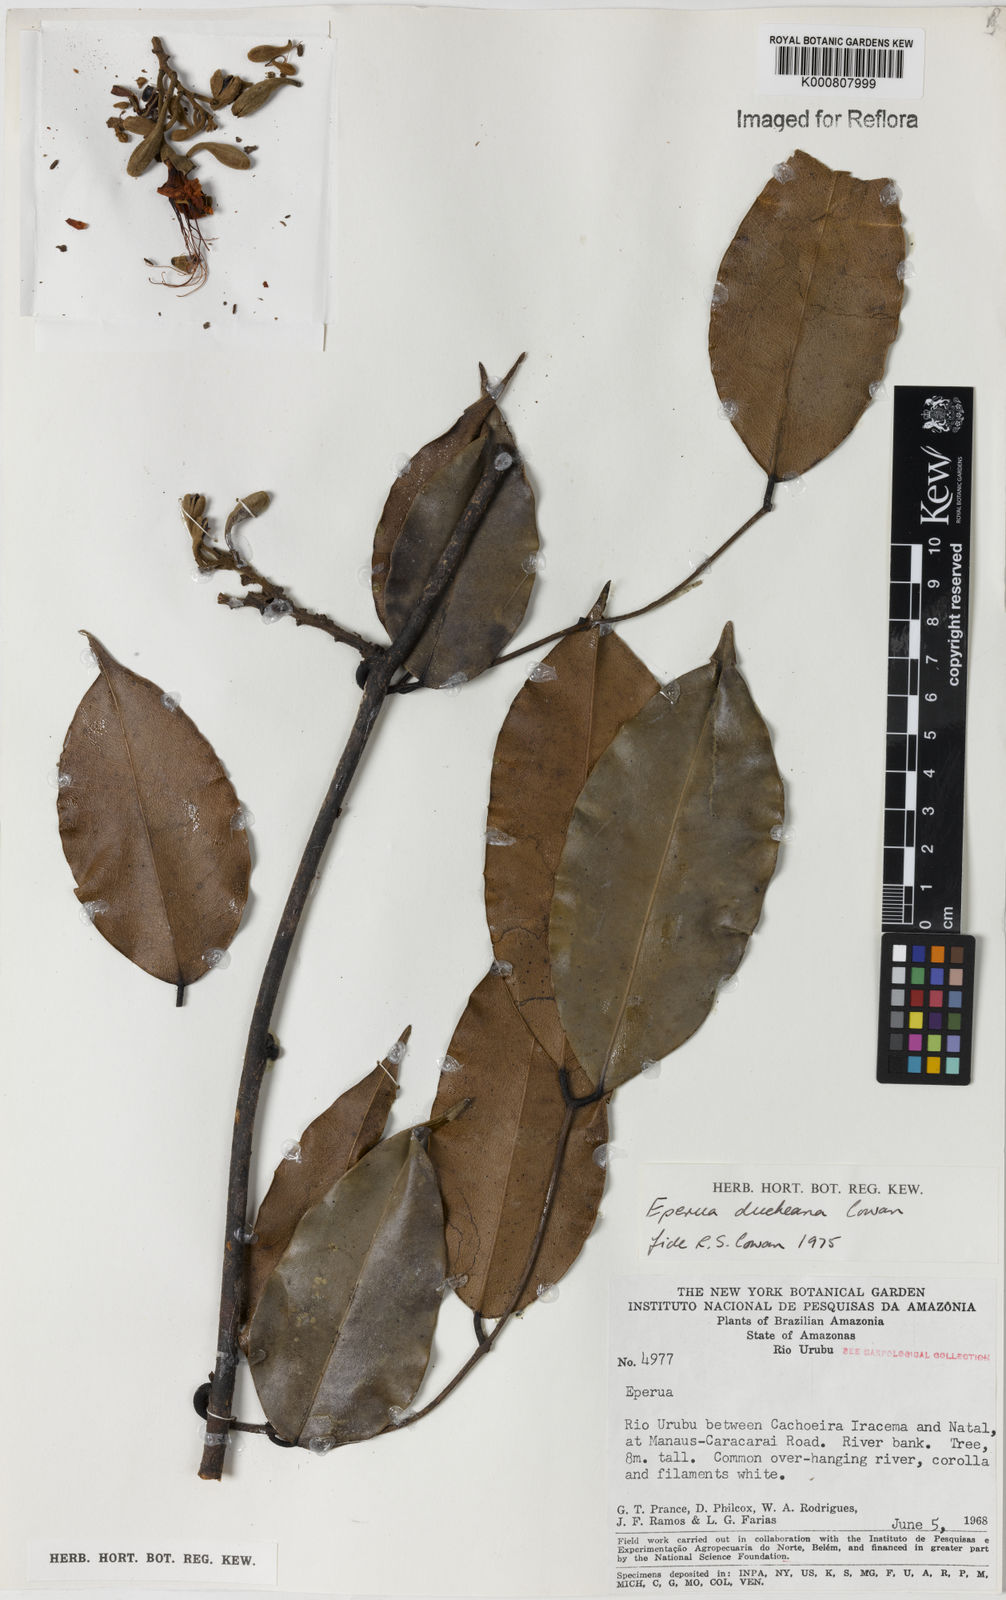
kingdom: Plantae
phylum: Tracheophyta
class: Magnoliopsida
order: Fabales
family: Fabaceae
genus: Eperua
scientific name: Eperua duckeana
